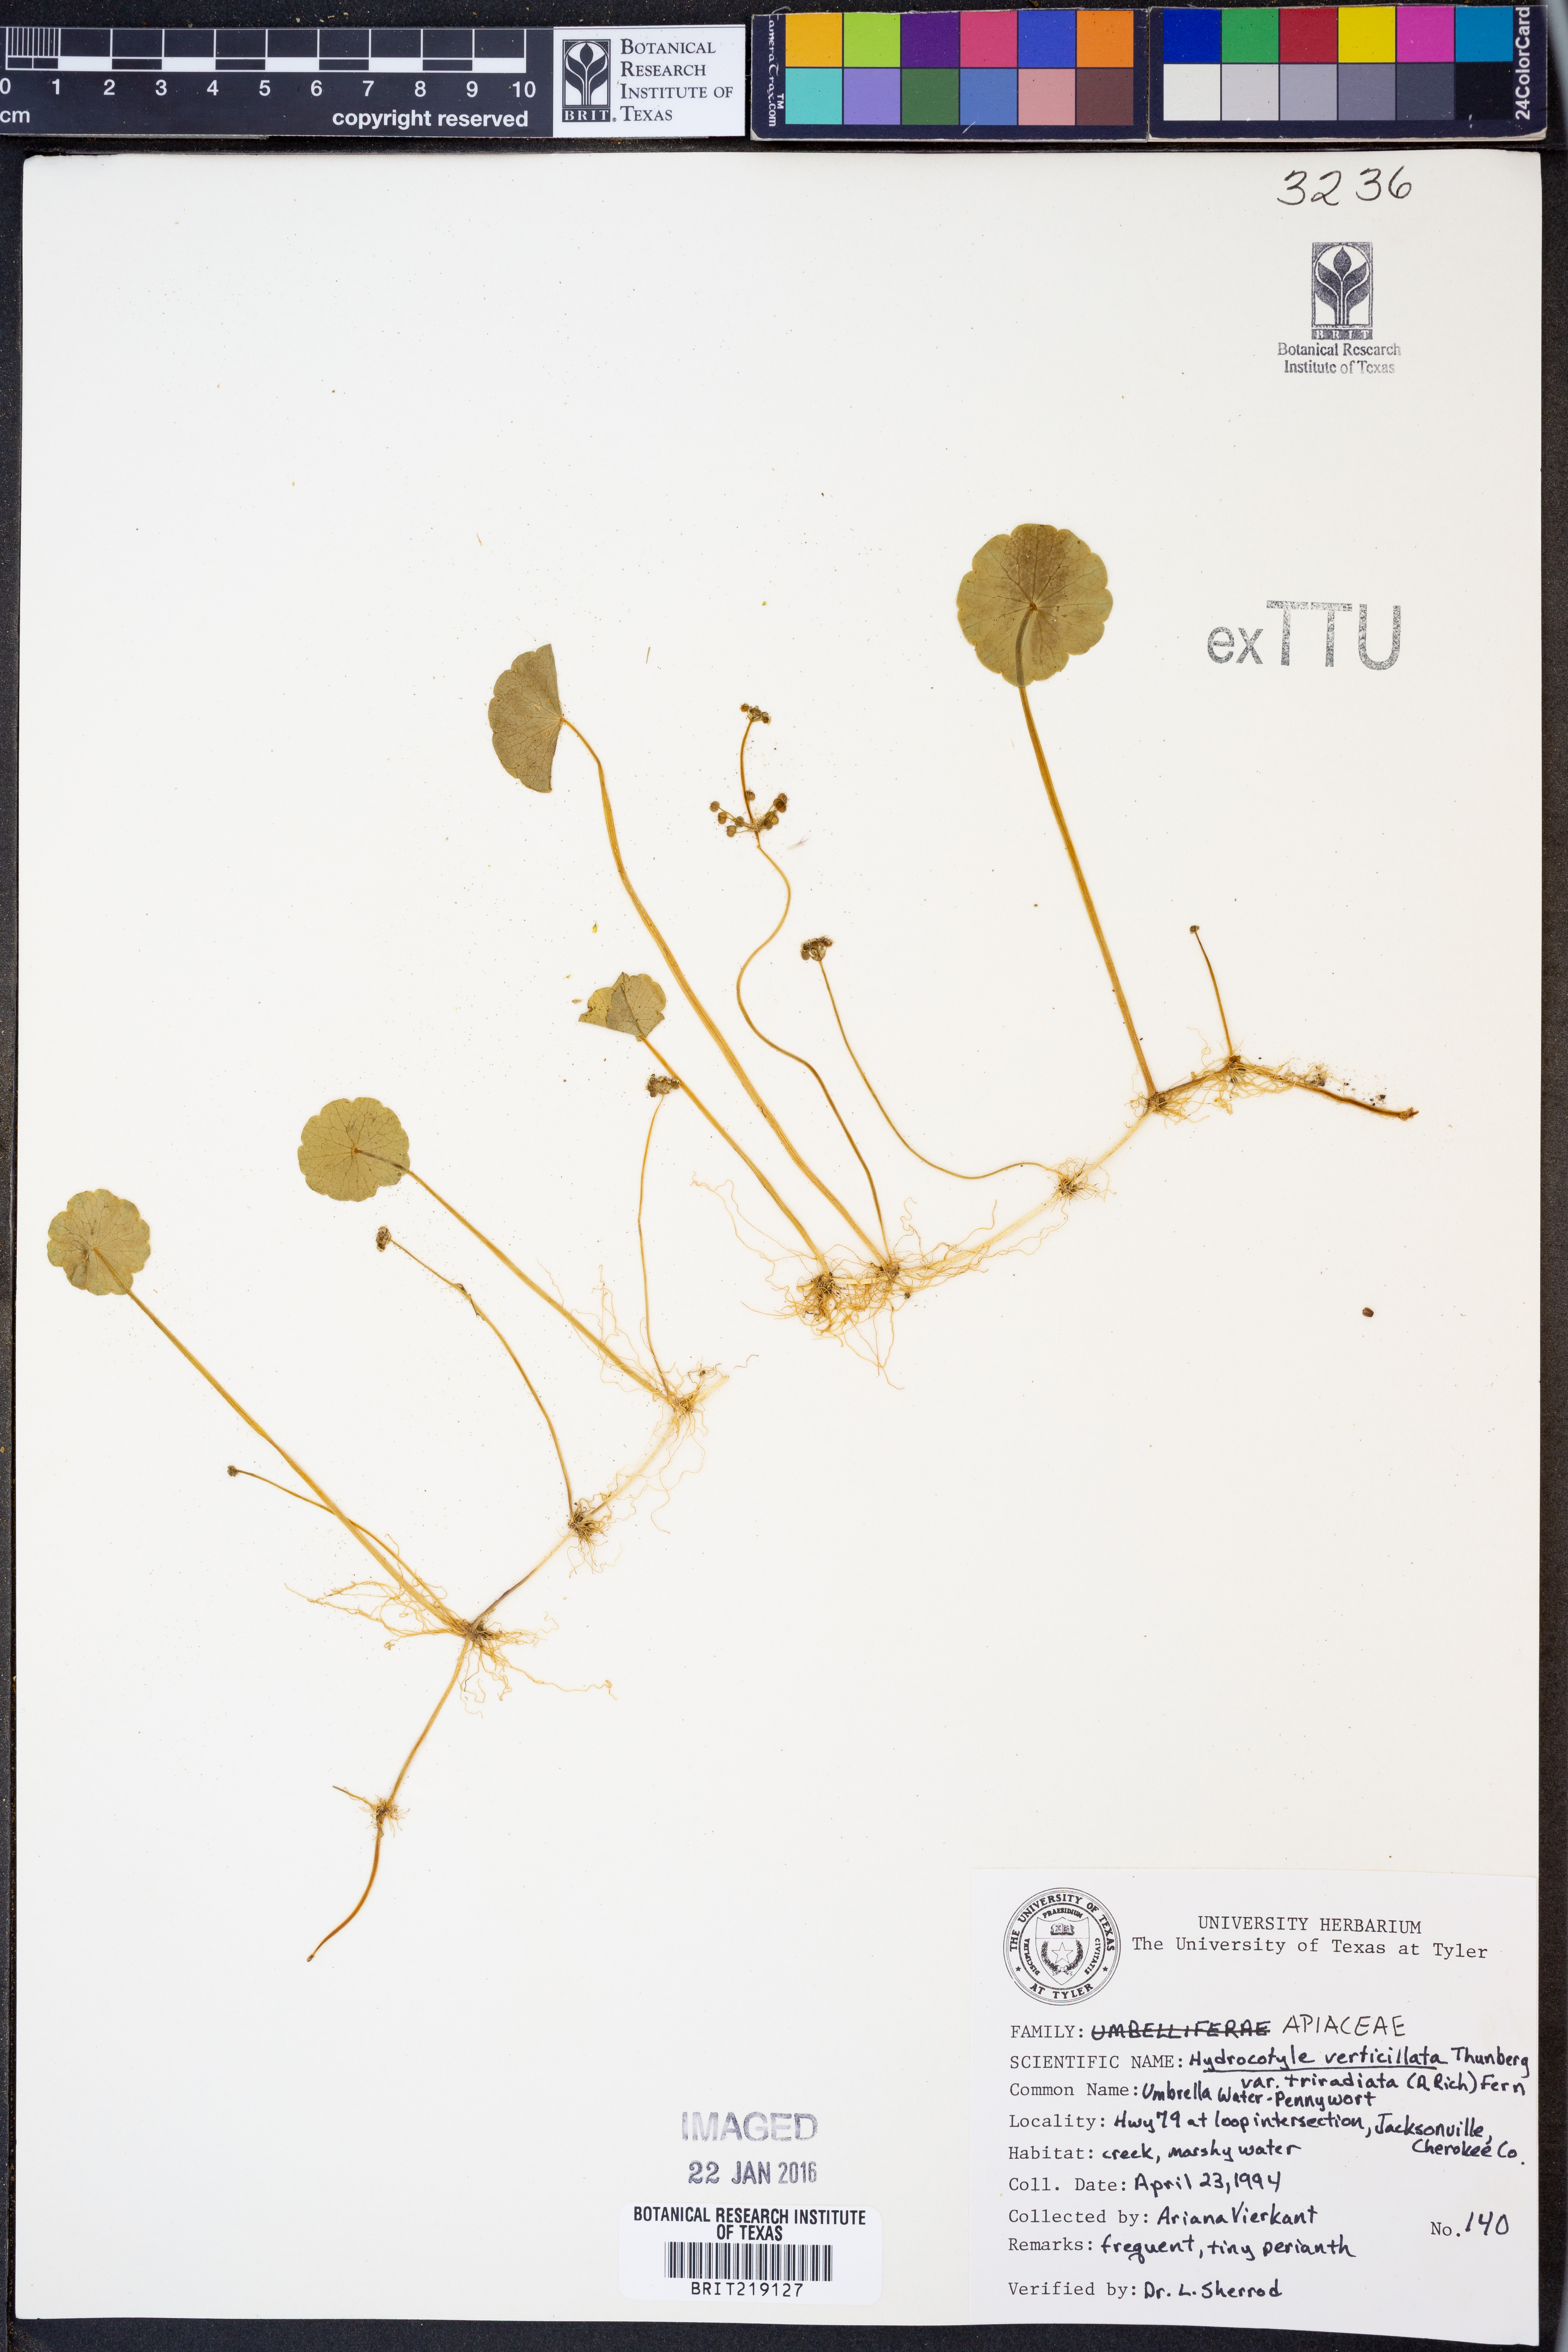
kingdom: Plantae
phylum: Tracheophyta
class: Magnoliopsida
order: Apiales
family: Araliaceae
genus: Hydrocotyle
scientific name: Hydrocotyle verticillata
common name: Whorled marshpennywort
